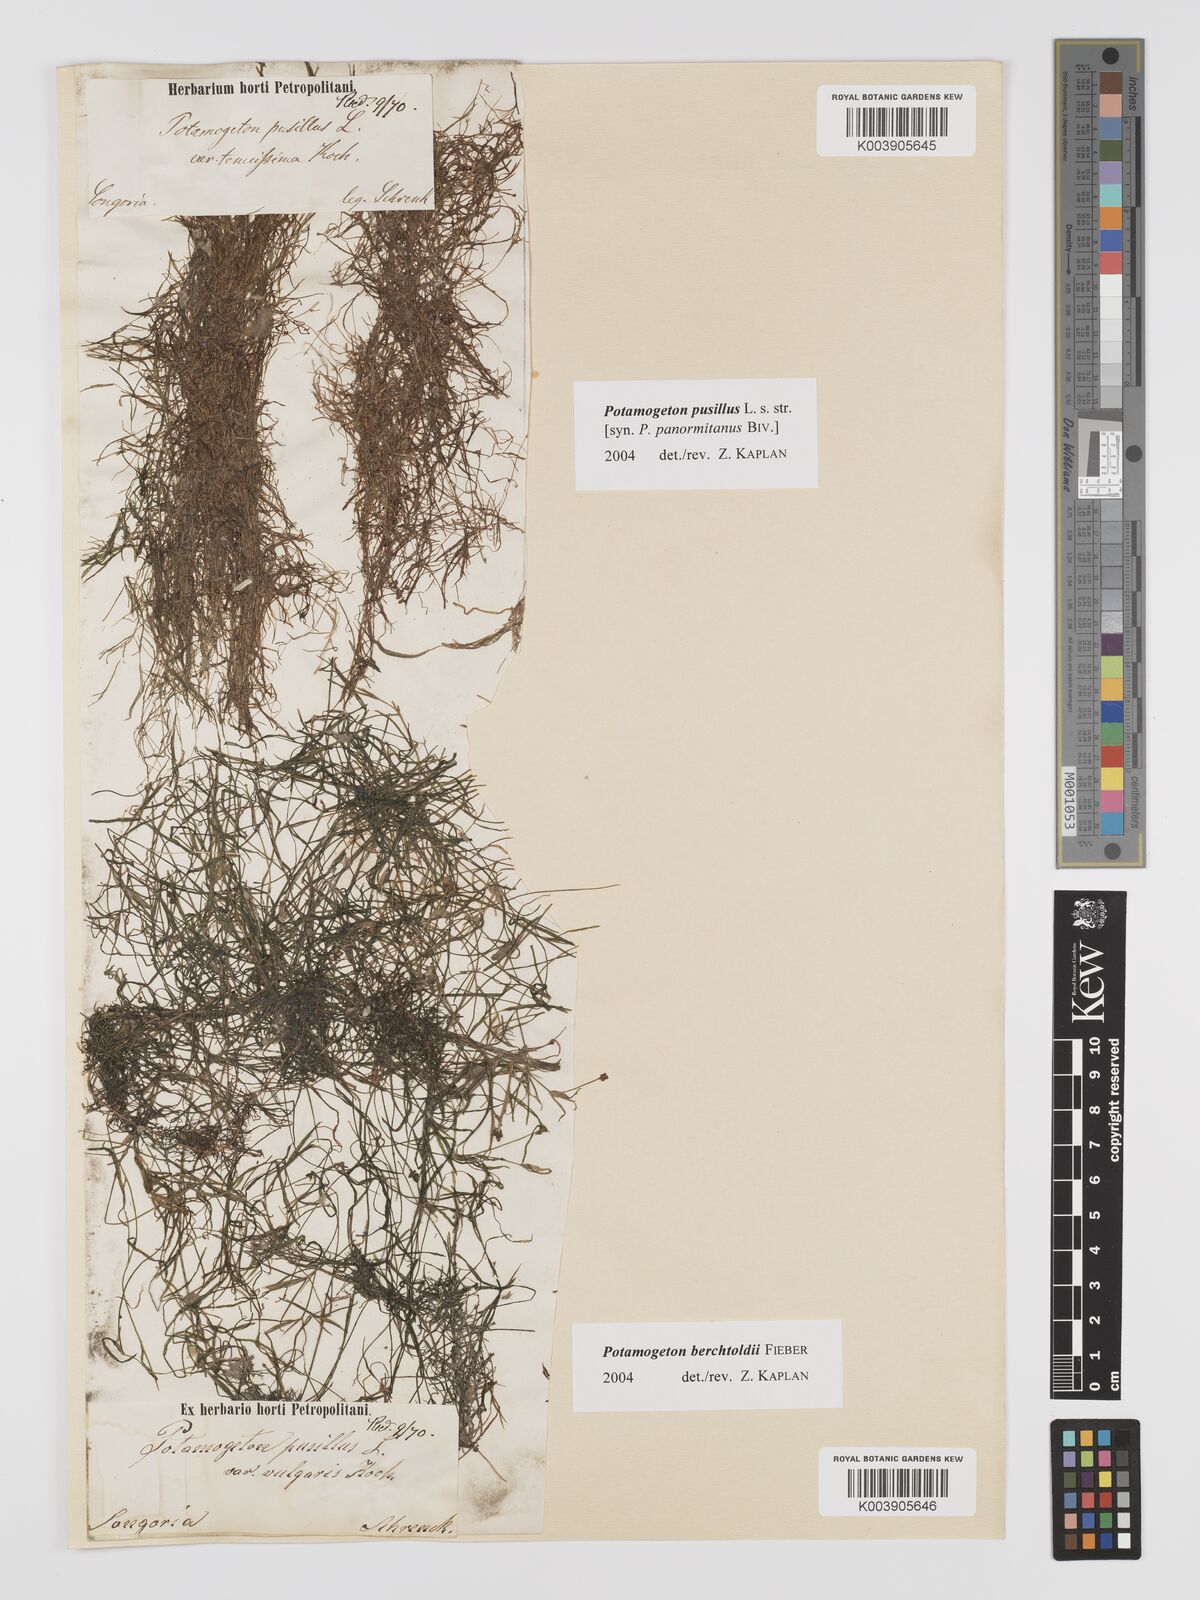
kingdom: Plantae
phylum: Tracheophyta
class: Liliopsida
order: Alismatales
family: Potamogetonaceae
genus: Potamogeton
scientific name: Potamogeton pusillus
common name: Lesser pondweed
